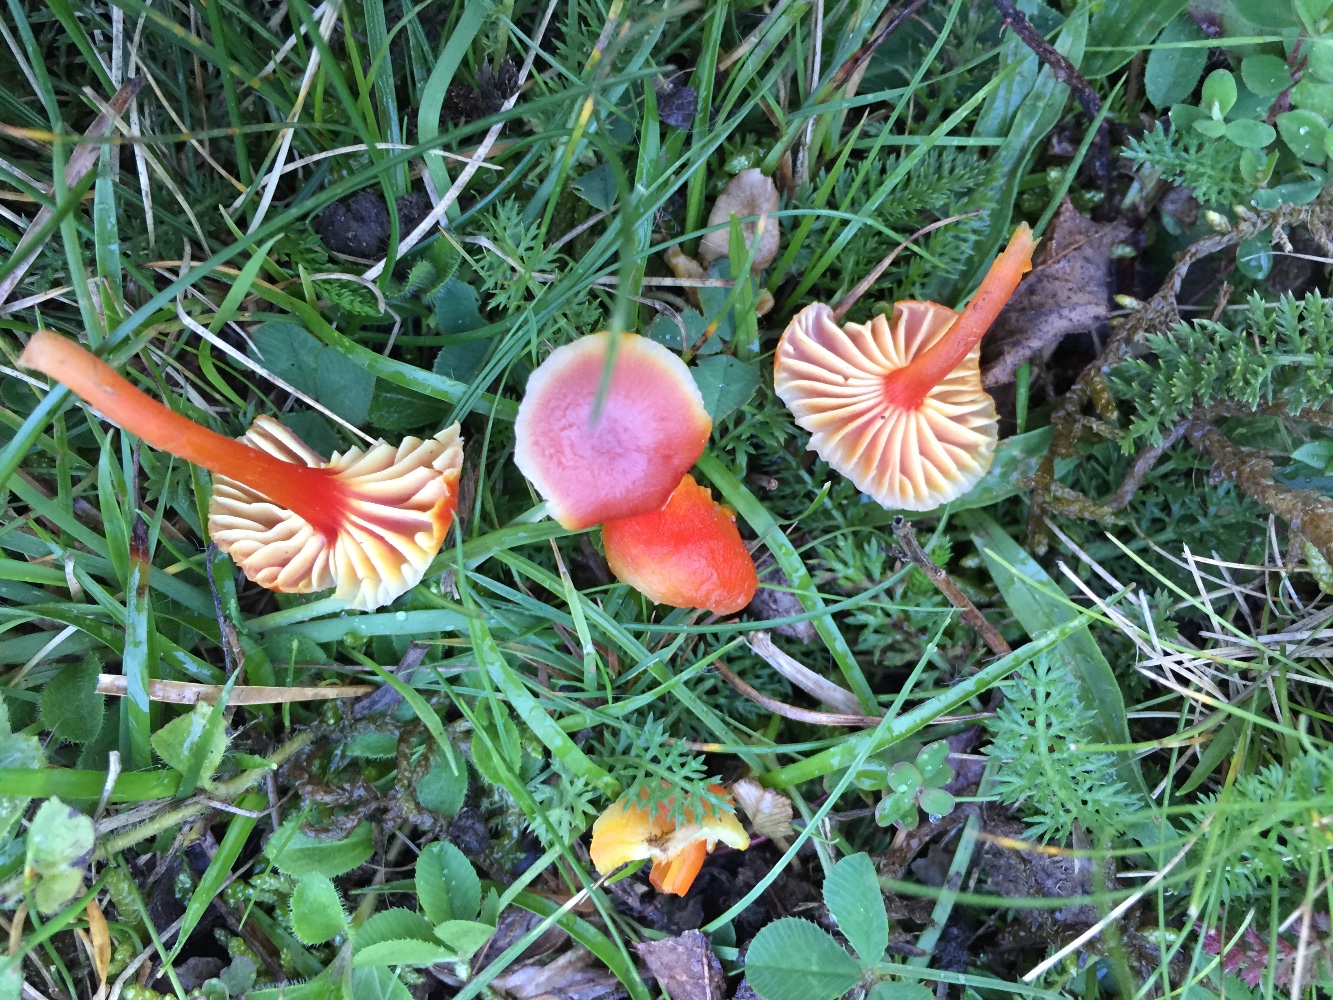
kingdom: Fungi
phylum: Basidiomycota
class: Agaricomycetes
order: Agaricales
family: Hygrophoraceae
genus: Hygrocybe
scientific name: Hygrocybe cantharellus
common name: kantarel-vokshat
